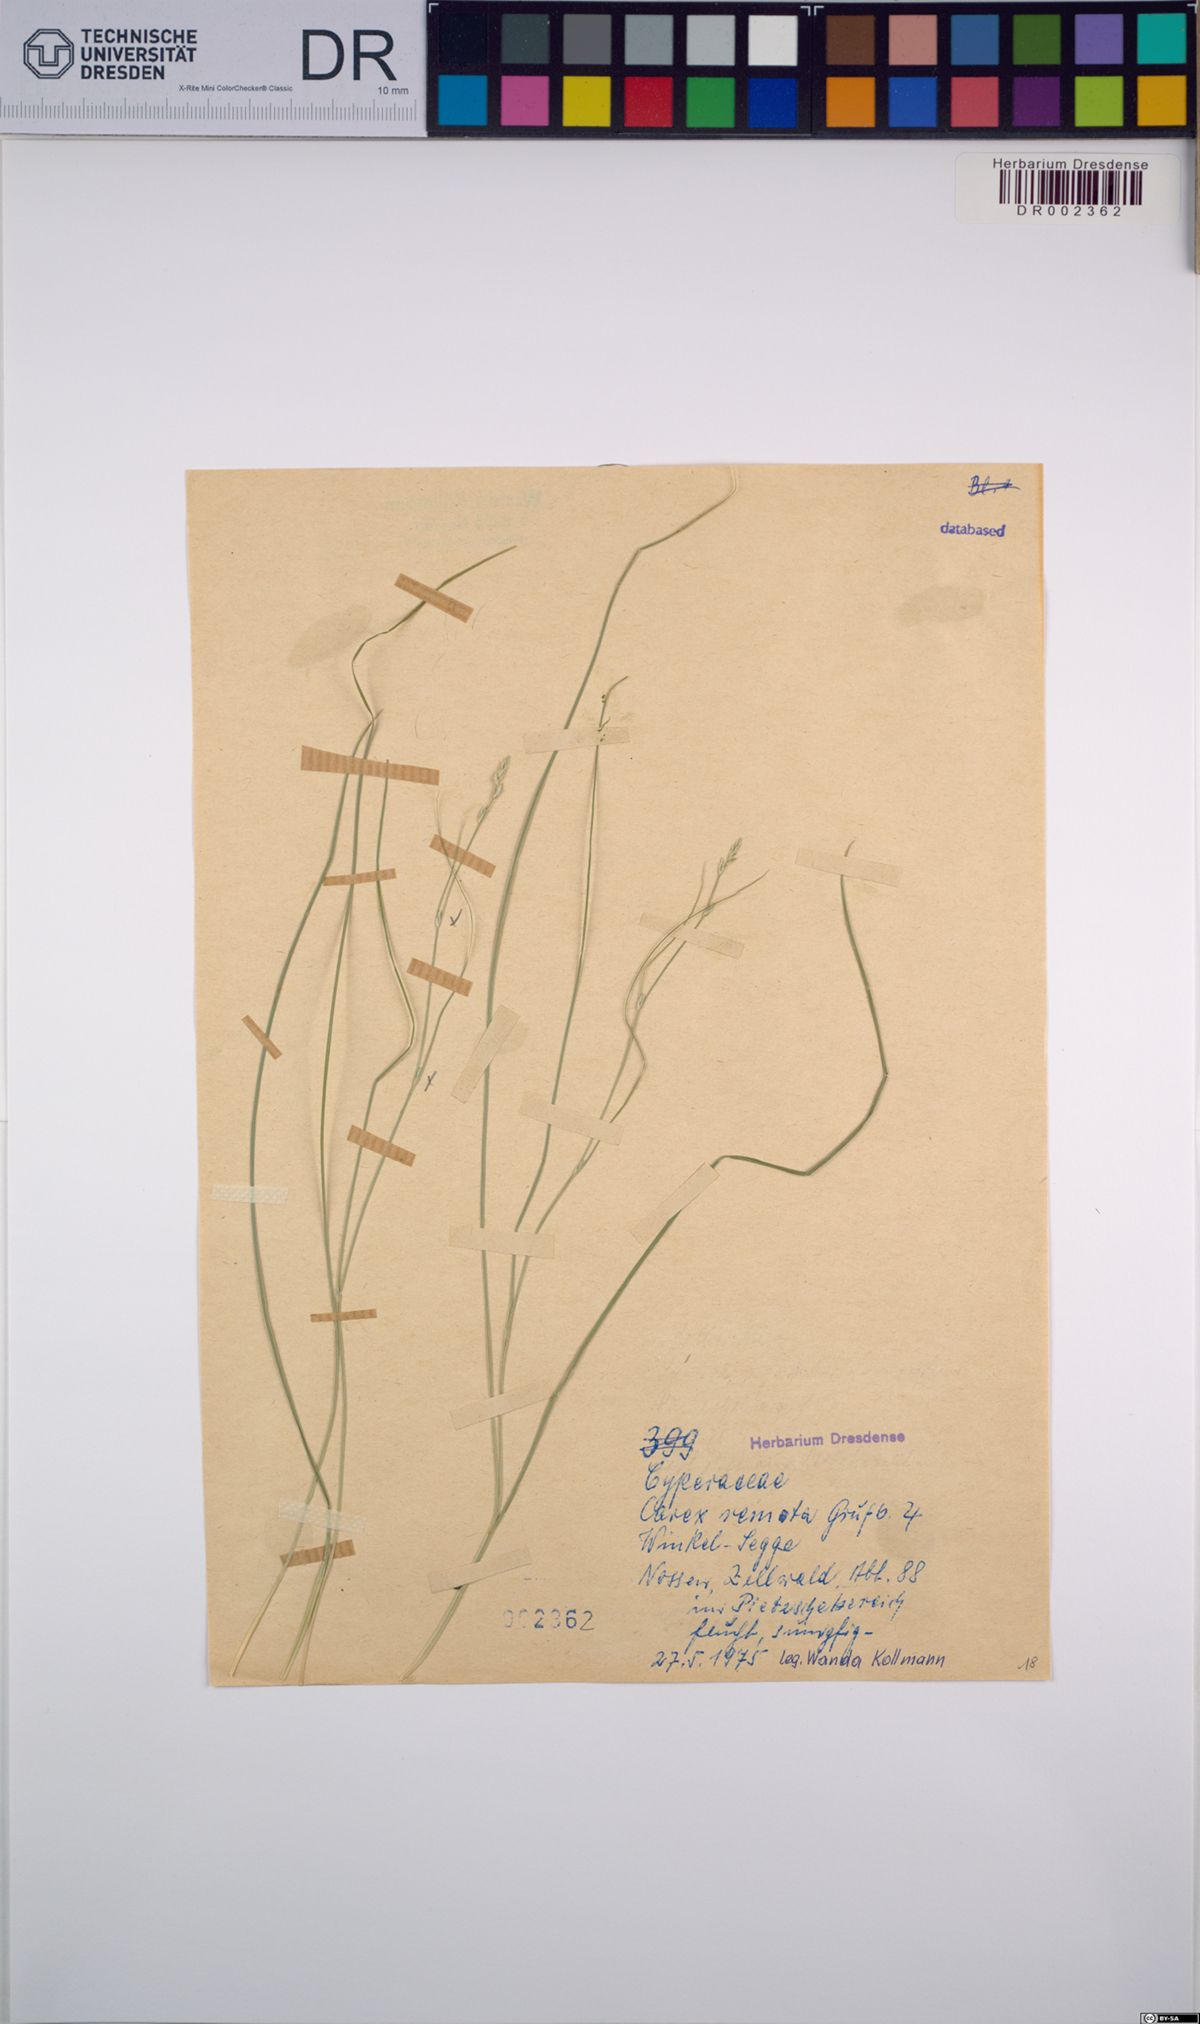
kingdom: Plantae
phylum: Tracheophyta
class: Liliopsida
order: Poales
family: Cyperaceae
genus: Carex
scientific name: Carex remota
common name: Remote sedge
